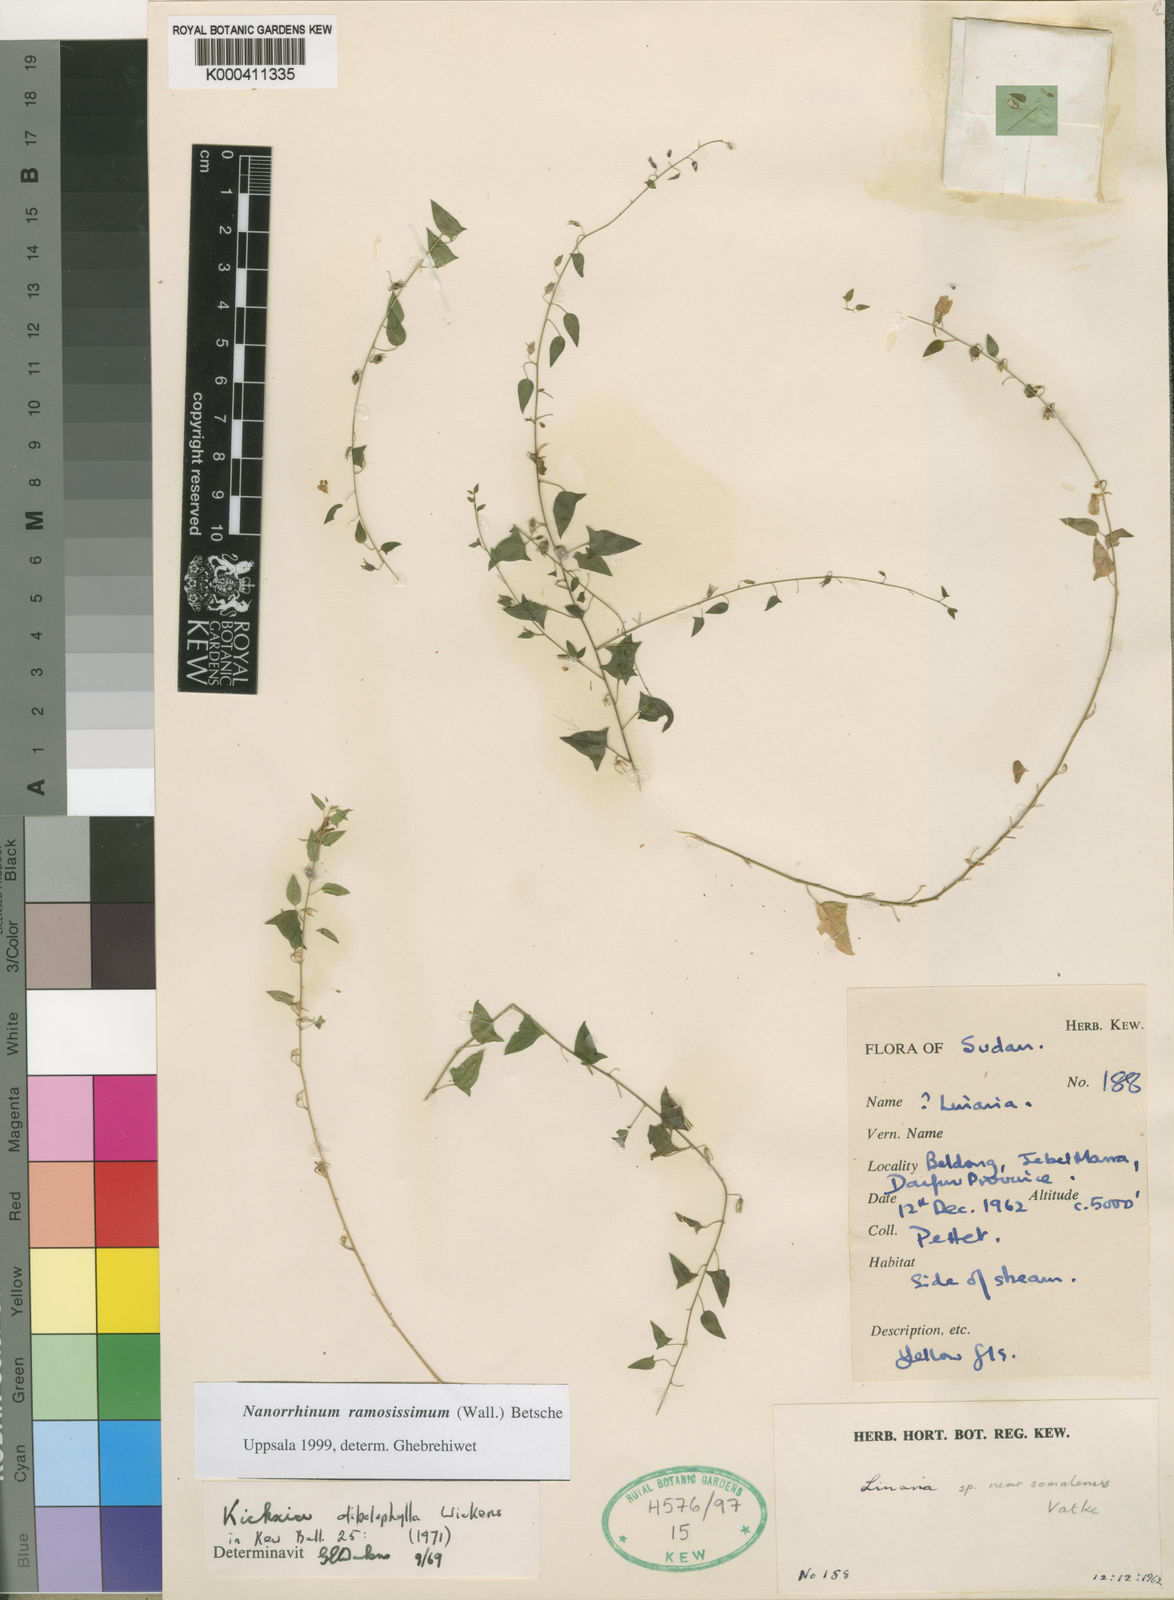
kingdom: Plantae
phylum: Tracheophyta
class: Magnoliopsida
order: Lamiales
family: Plantaginaceae
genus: Nanorrhinum
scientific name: Nanorrhinum ramosissimum
